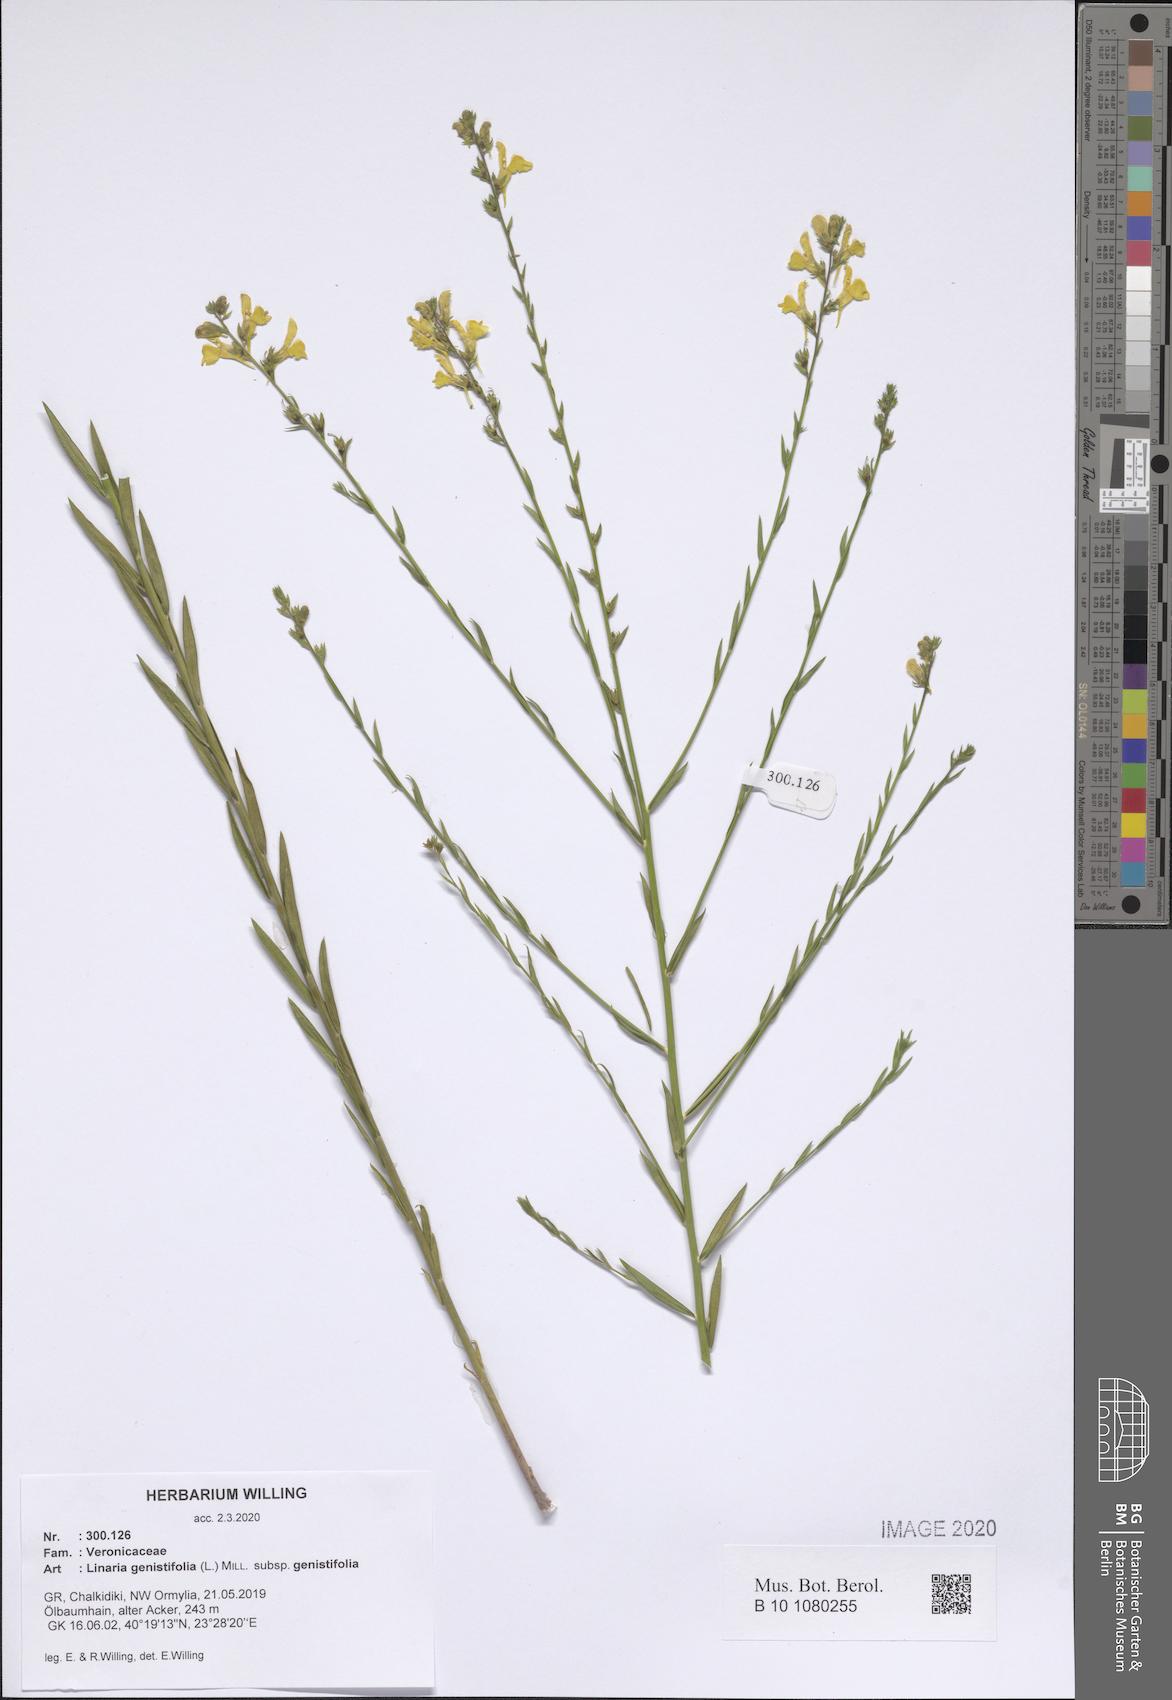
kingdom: Plantae
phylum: Tracheophyta
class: Magnoliopsida
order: Lamiales
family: Plantaginaceae
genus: Linaria
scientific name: Linaria genistifolia
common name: Broomleaf toadflax
